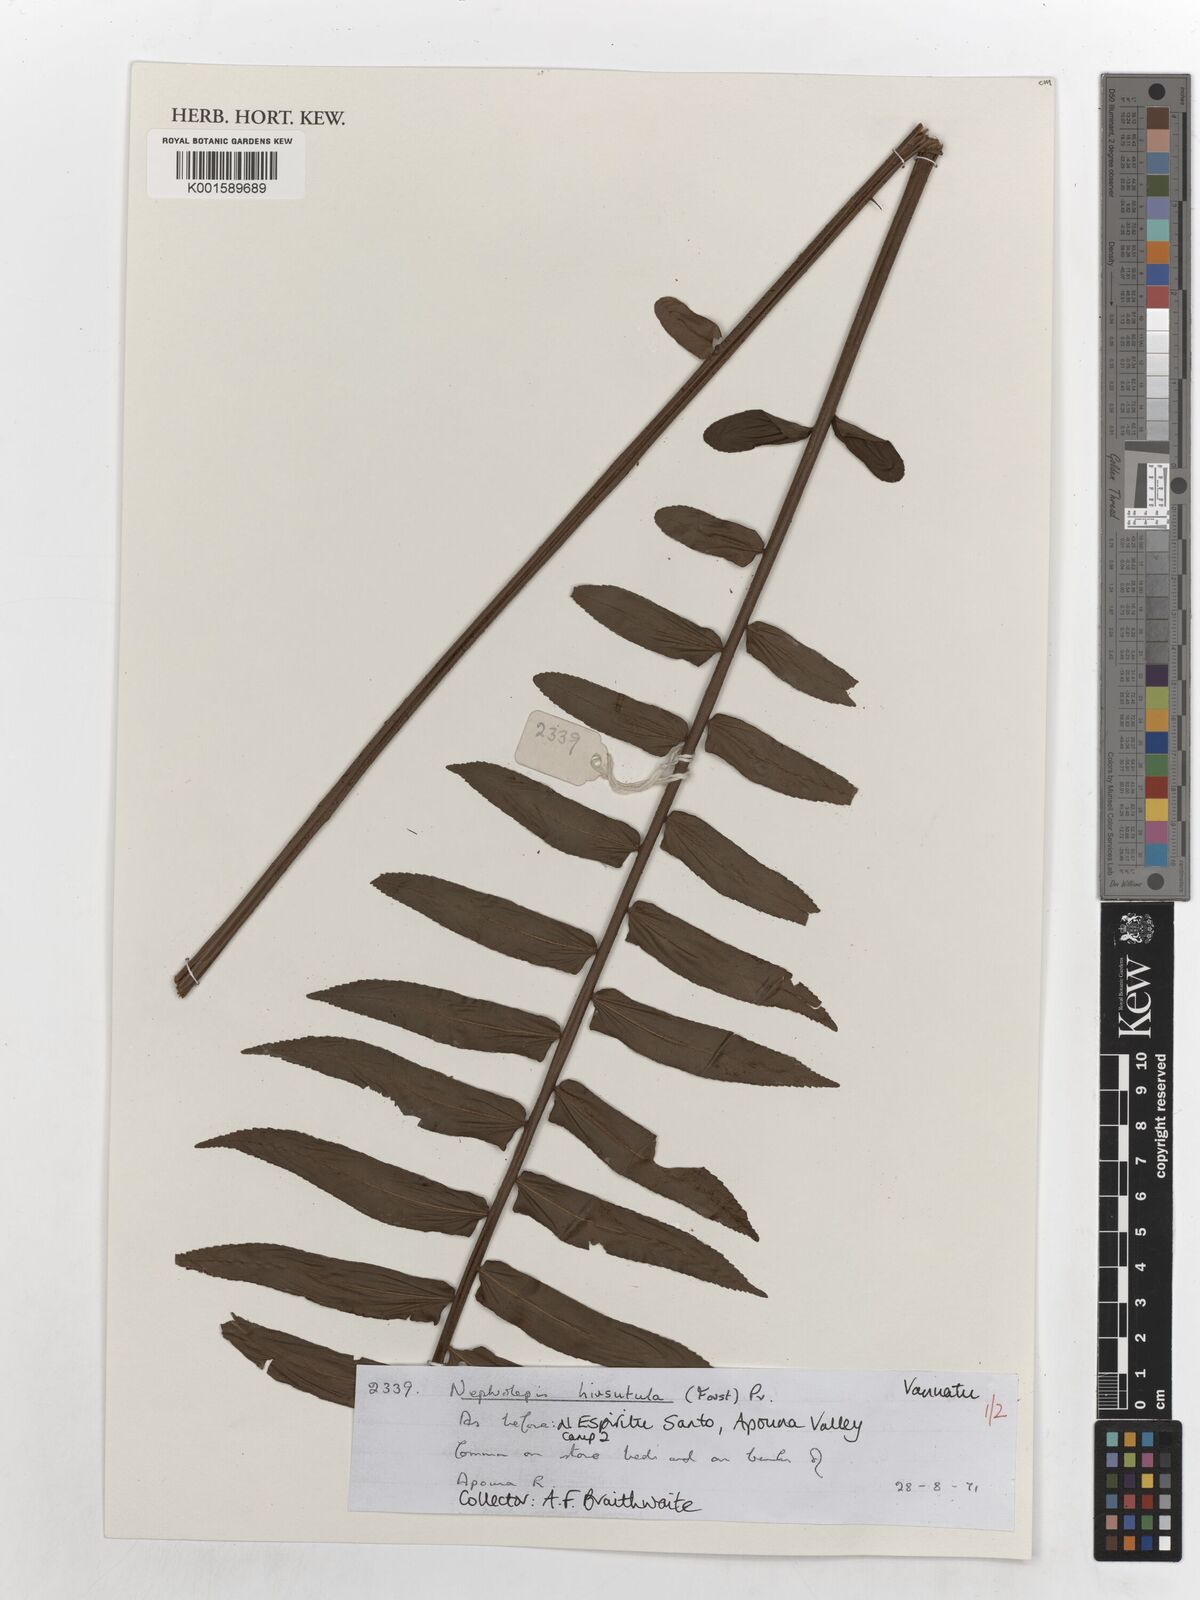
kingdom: Plantae
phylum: Tracheophyta
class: Polypodiopsida
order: Polypodiales
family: Nephrolepidaceae
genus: Nephrolepis
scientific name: Nephrolepis hirsutula
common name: Asian sword fern
